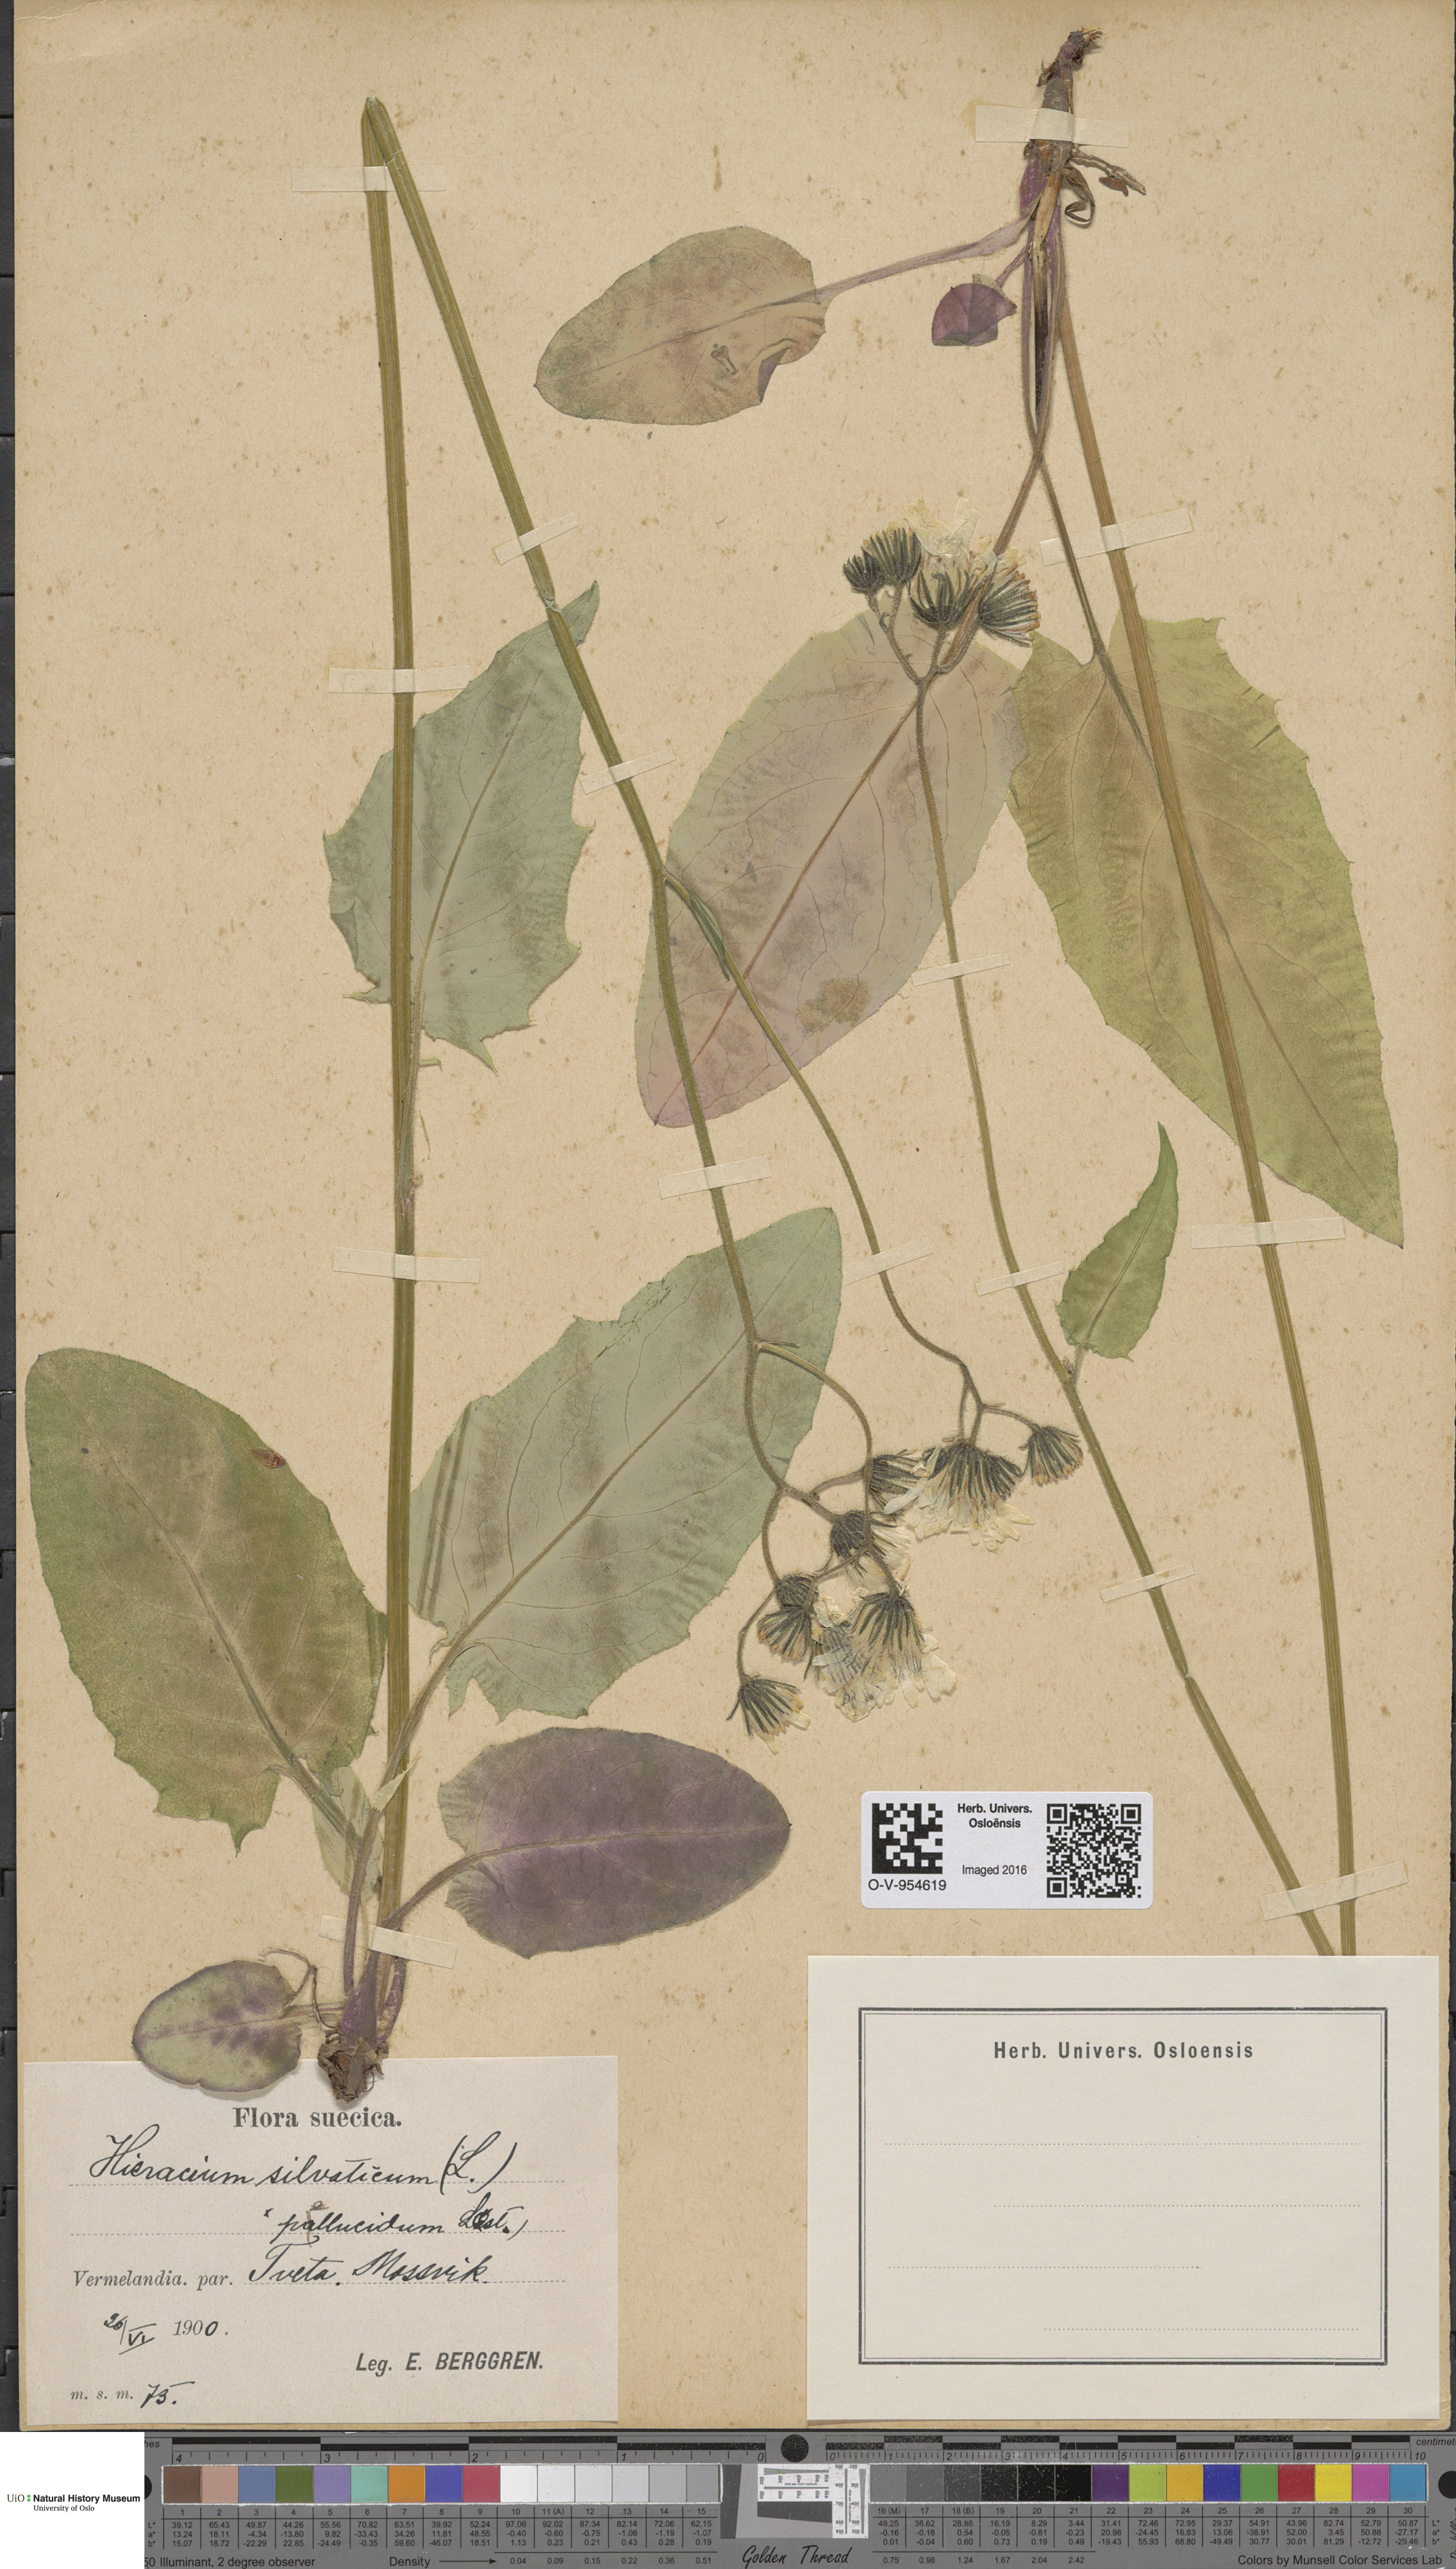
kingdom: Plantae
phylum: Tracheophyta
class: Magnoliopsida
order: Asterales
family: Asteraceae
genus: Hieracium
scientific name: Hieracium
